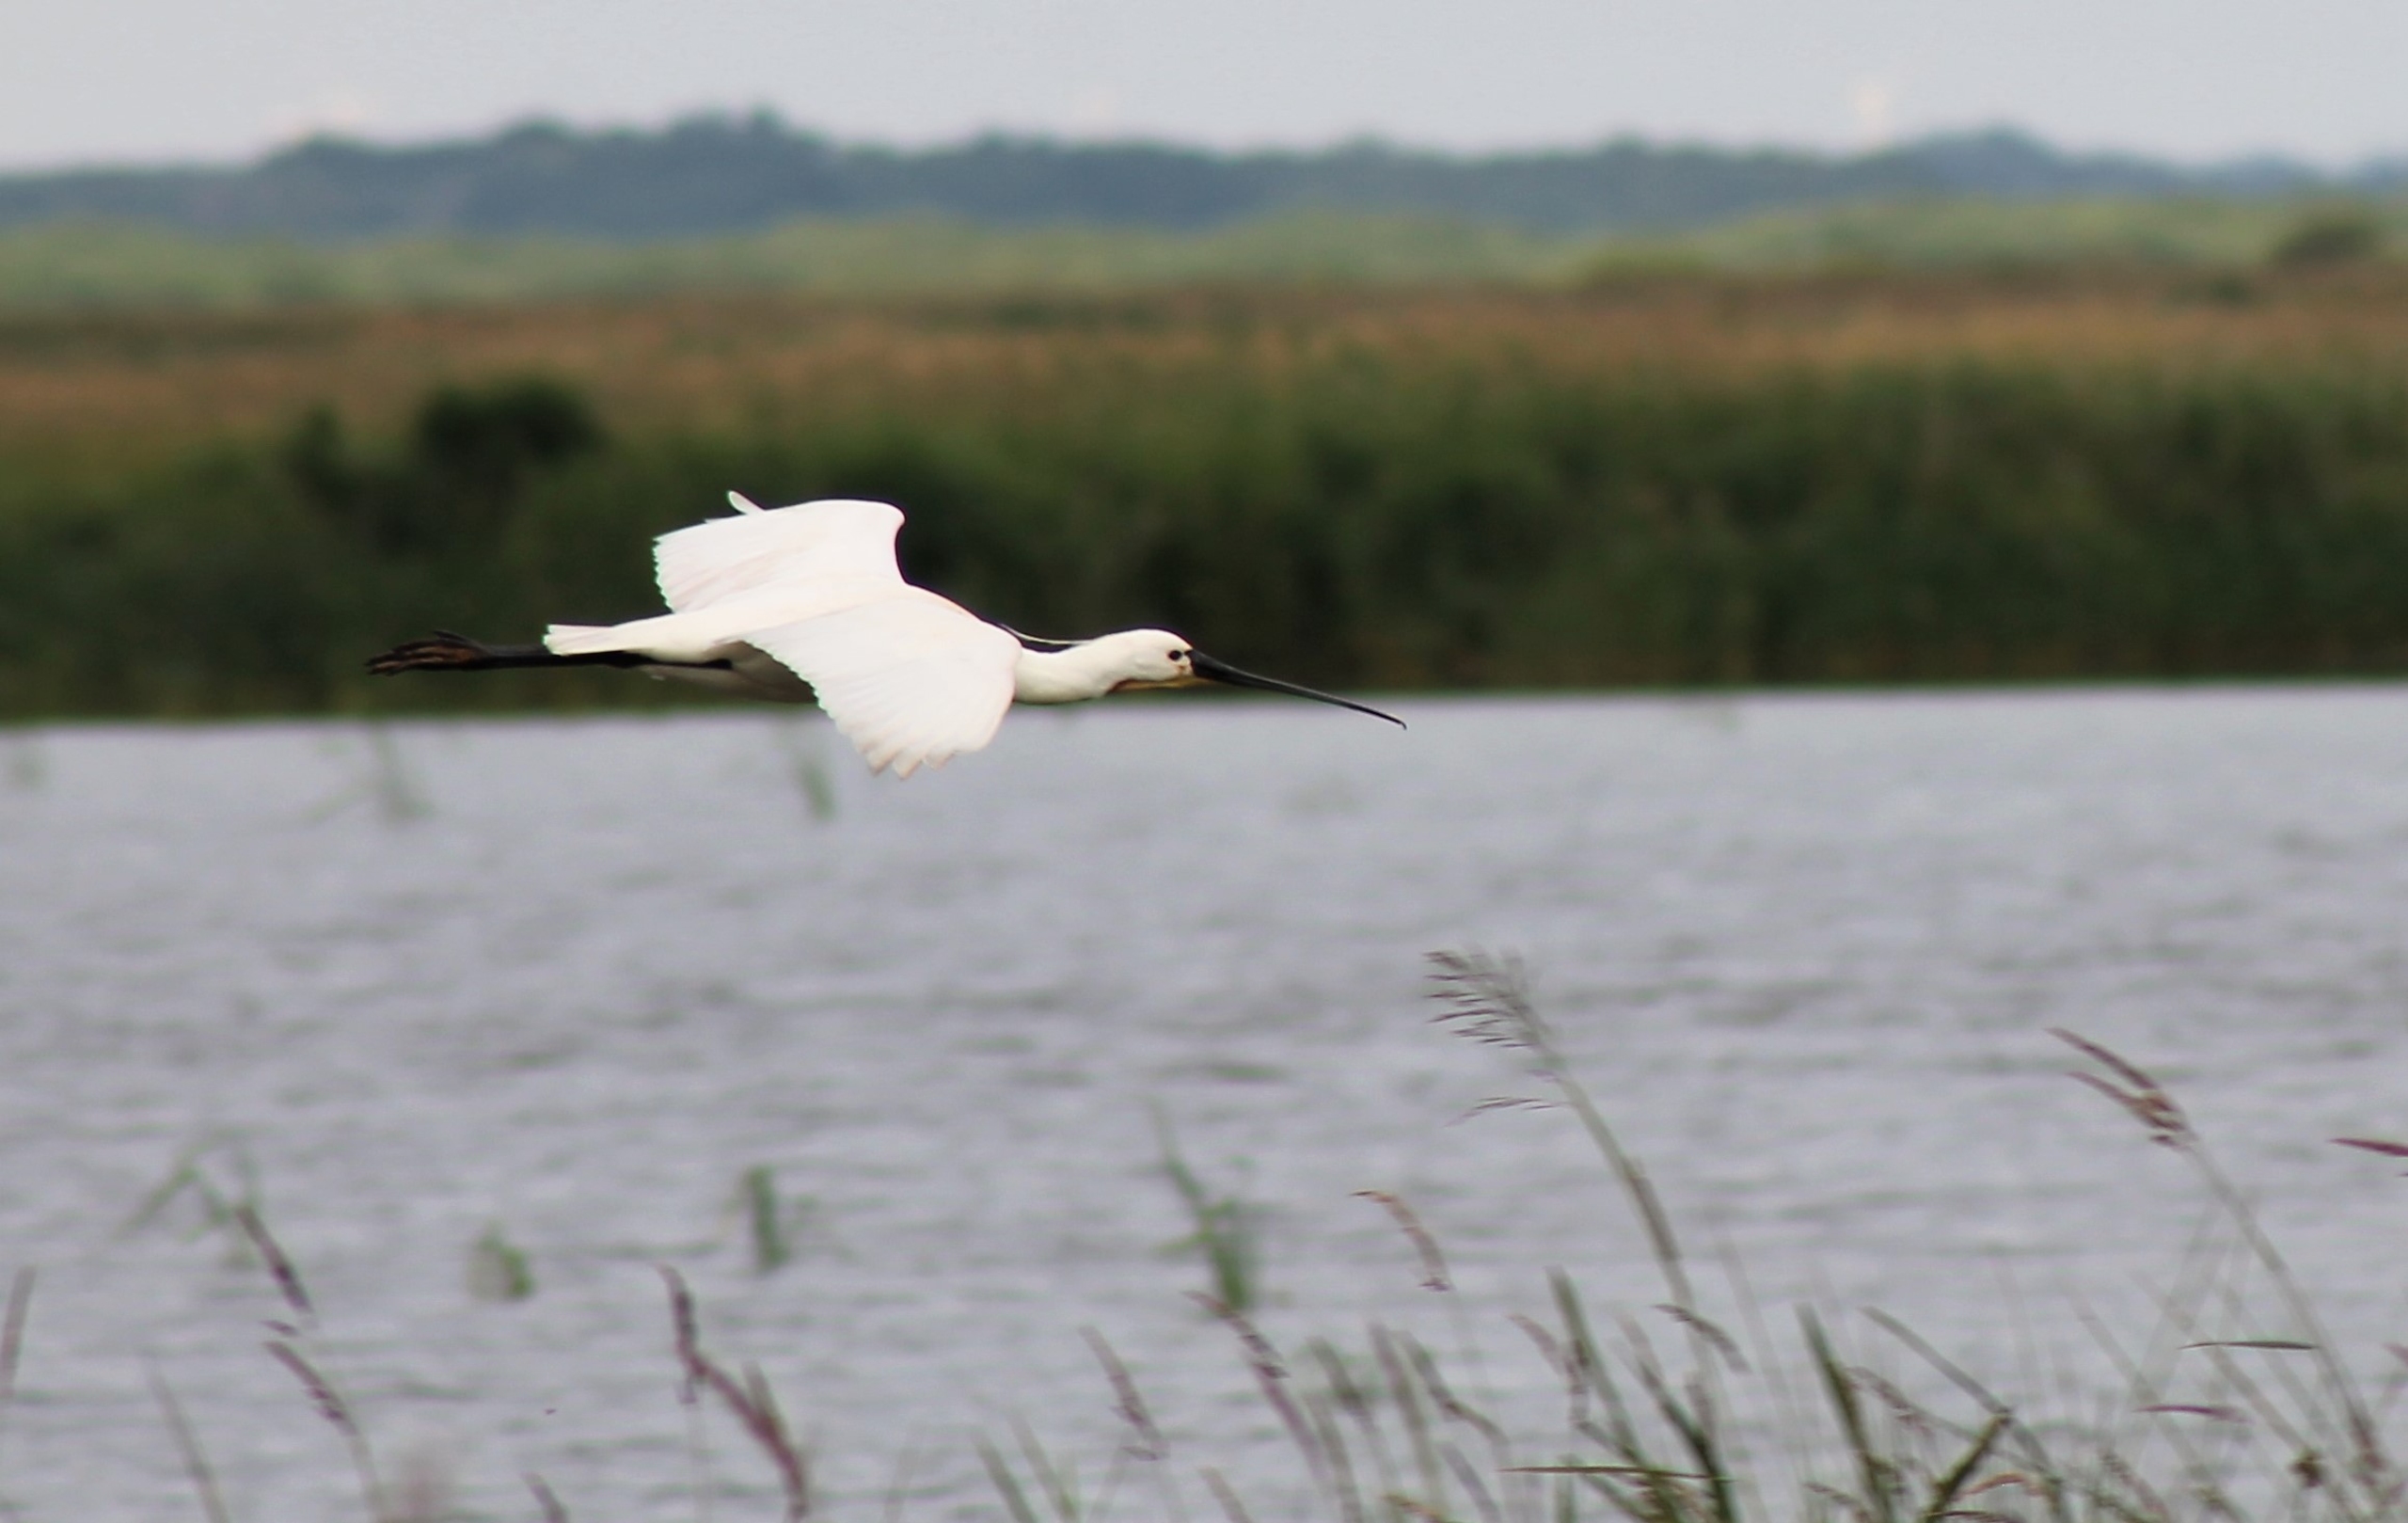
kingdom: Animalia
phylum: Chordata
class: Aves
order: Pelecaniformes
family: Threskiornithidae
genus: Platalea
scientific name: Platalea leucorodia
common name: Skestork
